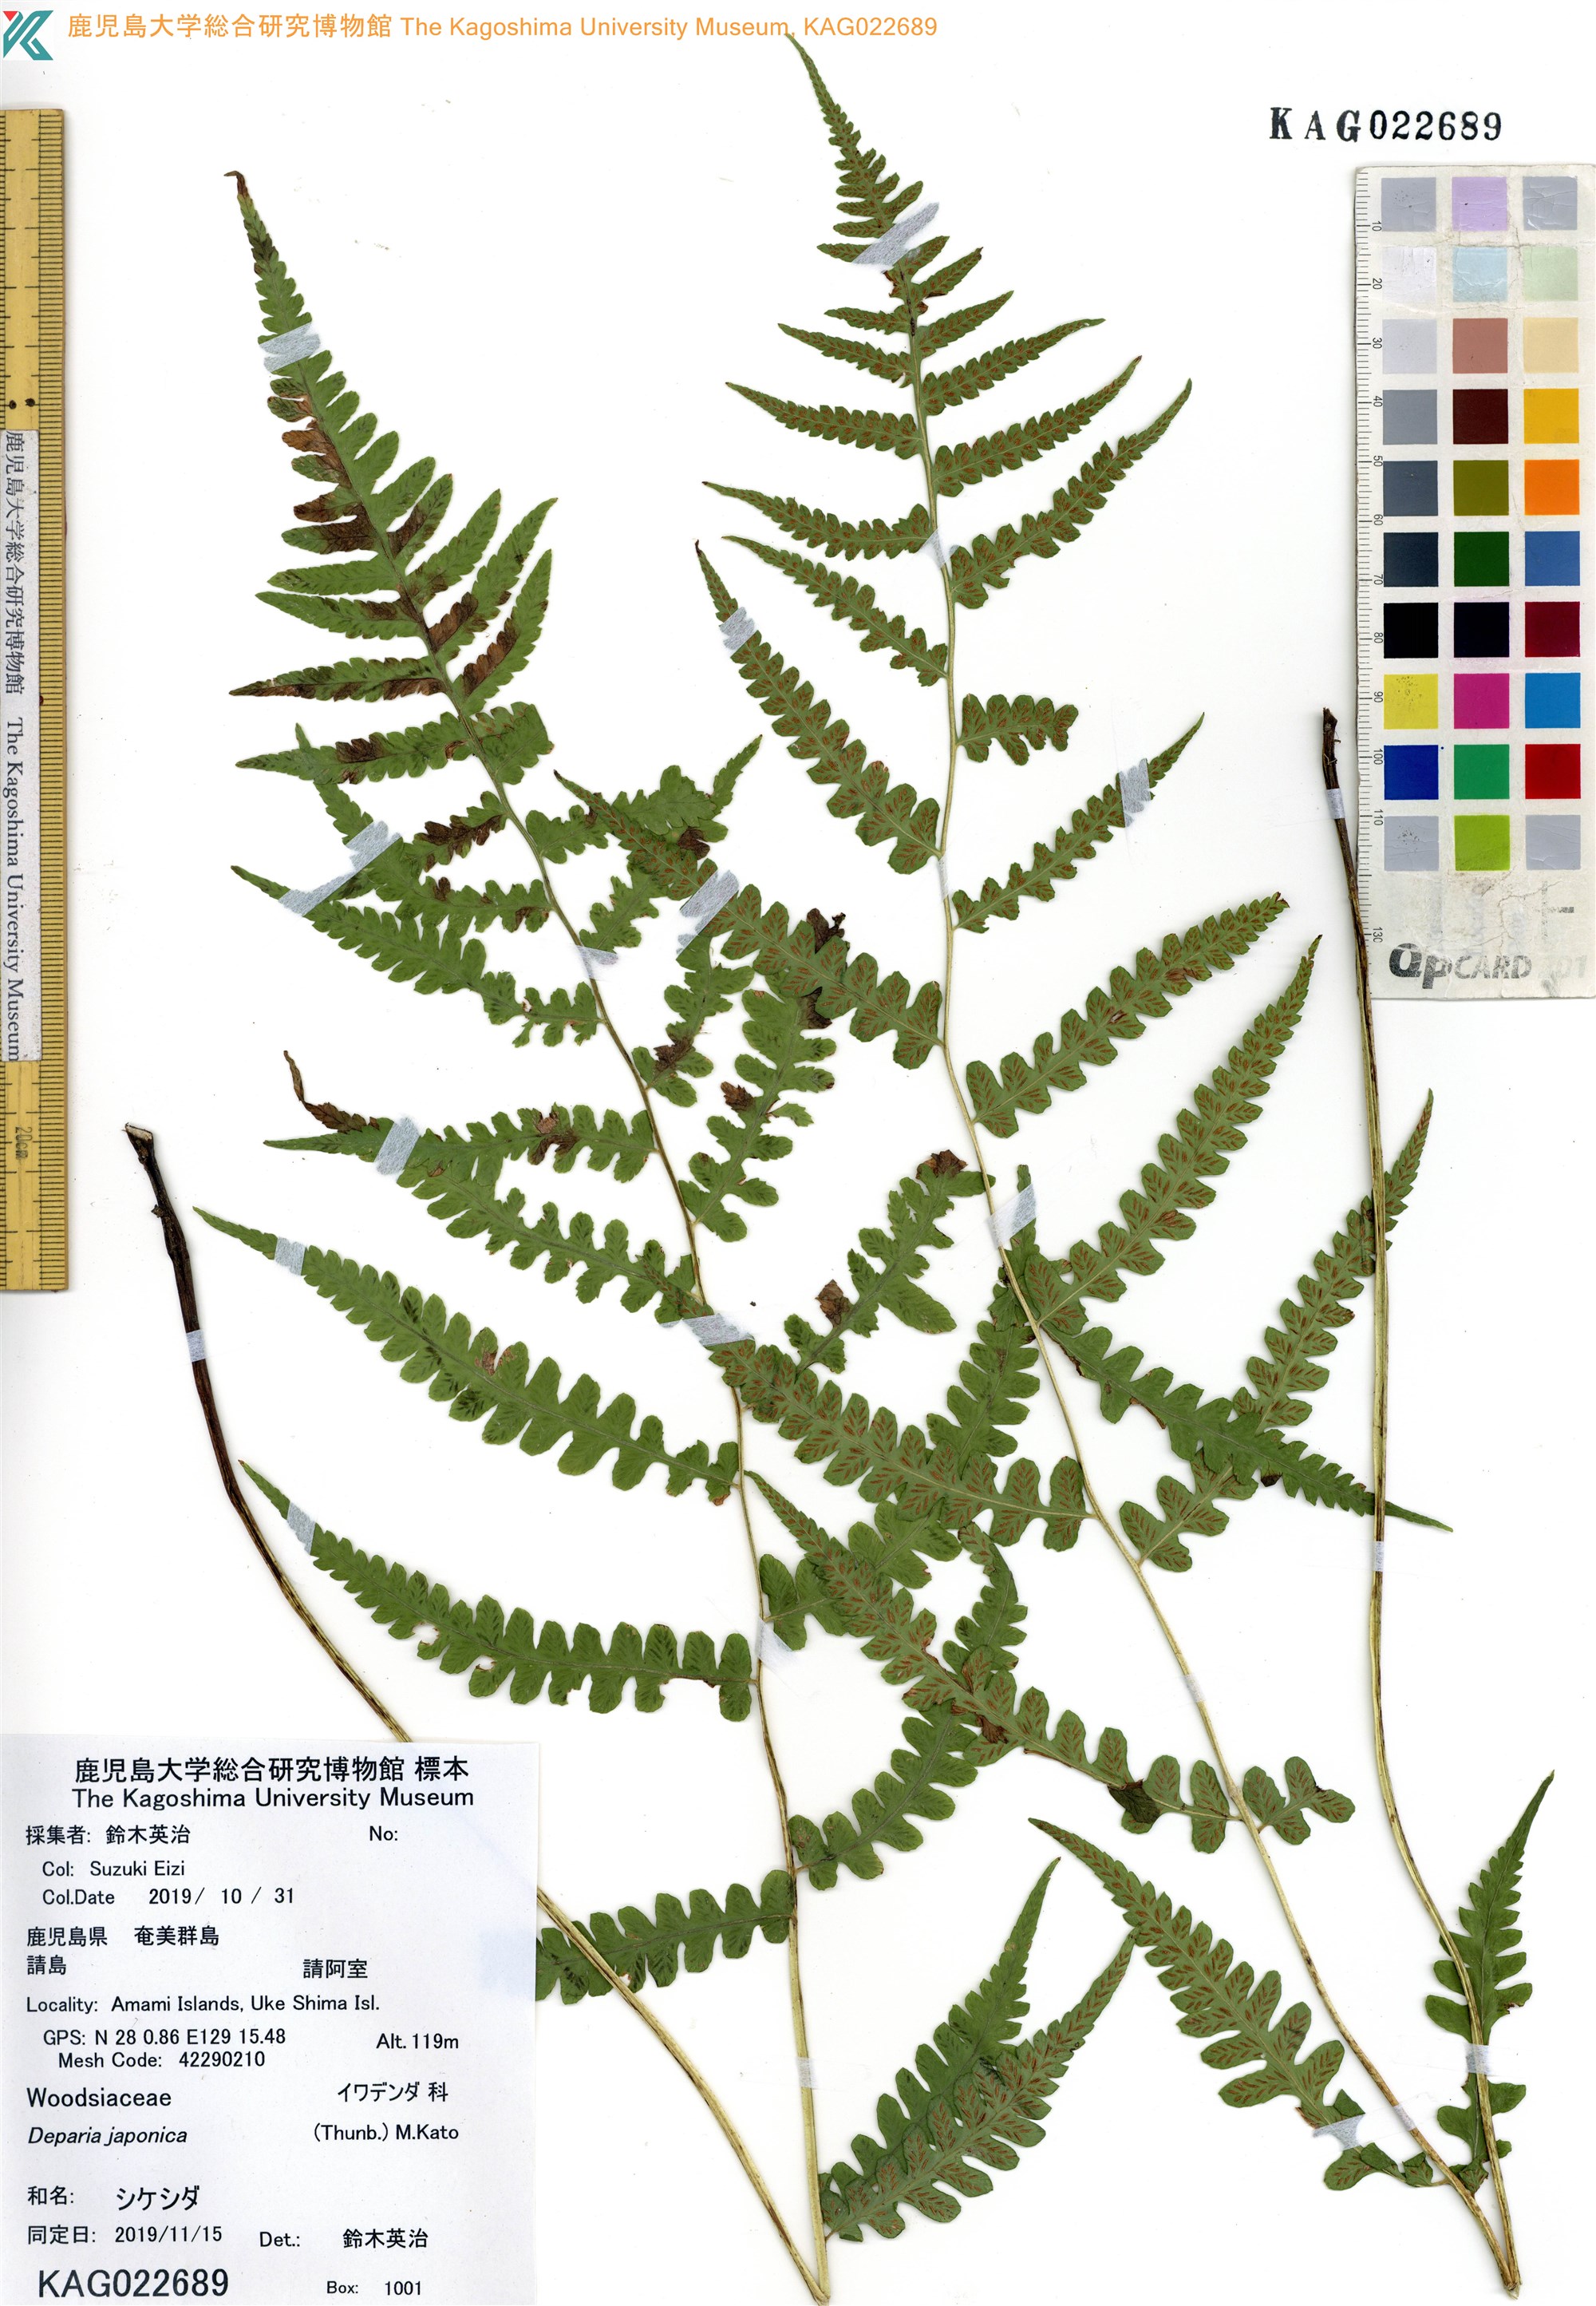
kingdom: Plantae
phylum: Tracheophyta
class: Polypodiopsida
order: Polypodiales
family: Athyriaceae
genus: Deparia
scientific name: Deparia japonica
